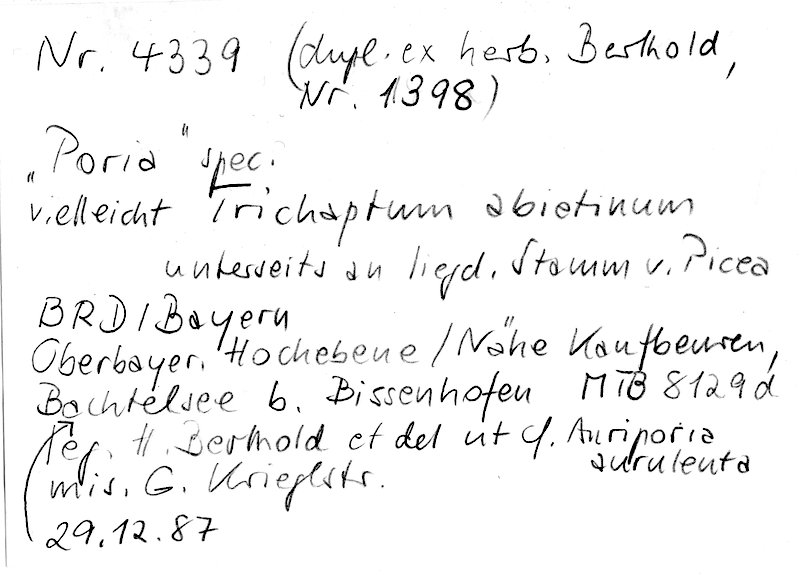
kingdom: Plantae
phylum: Tracheophyta
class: Pinopsida
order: Pinales
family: Pinaceae
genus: Picea
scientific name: Picea
